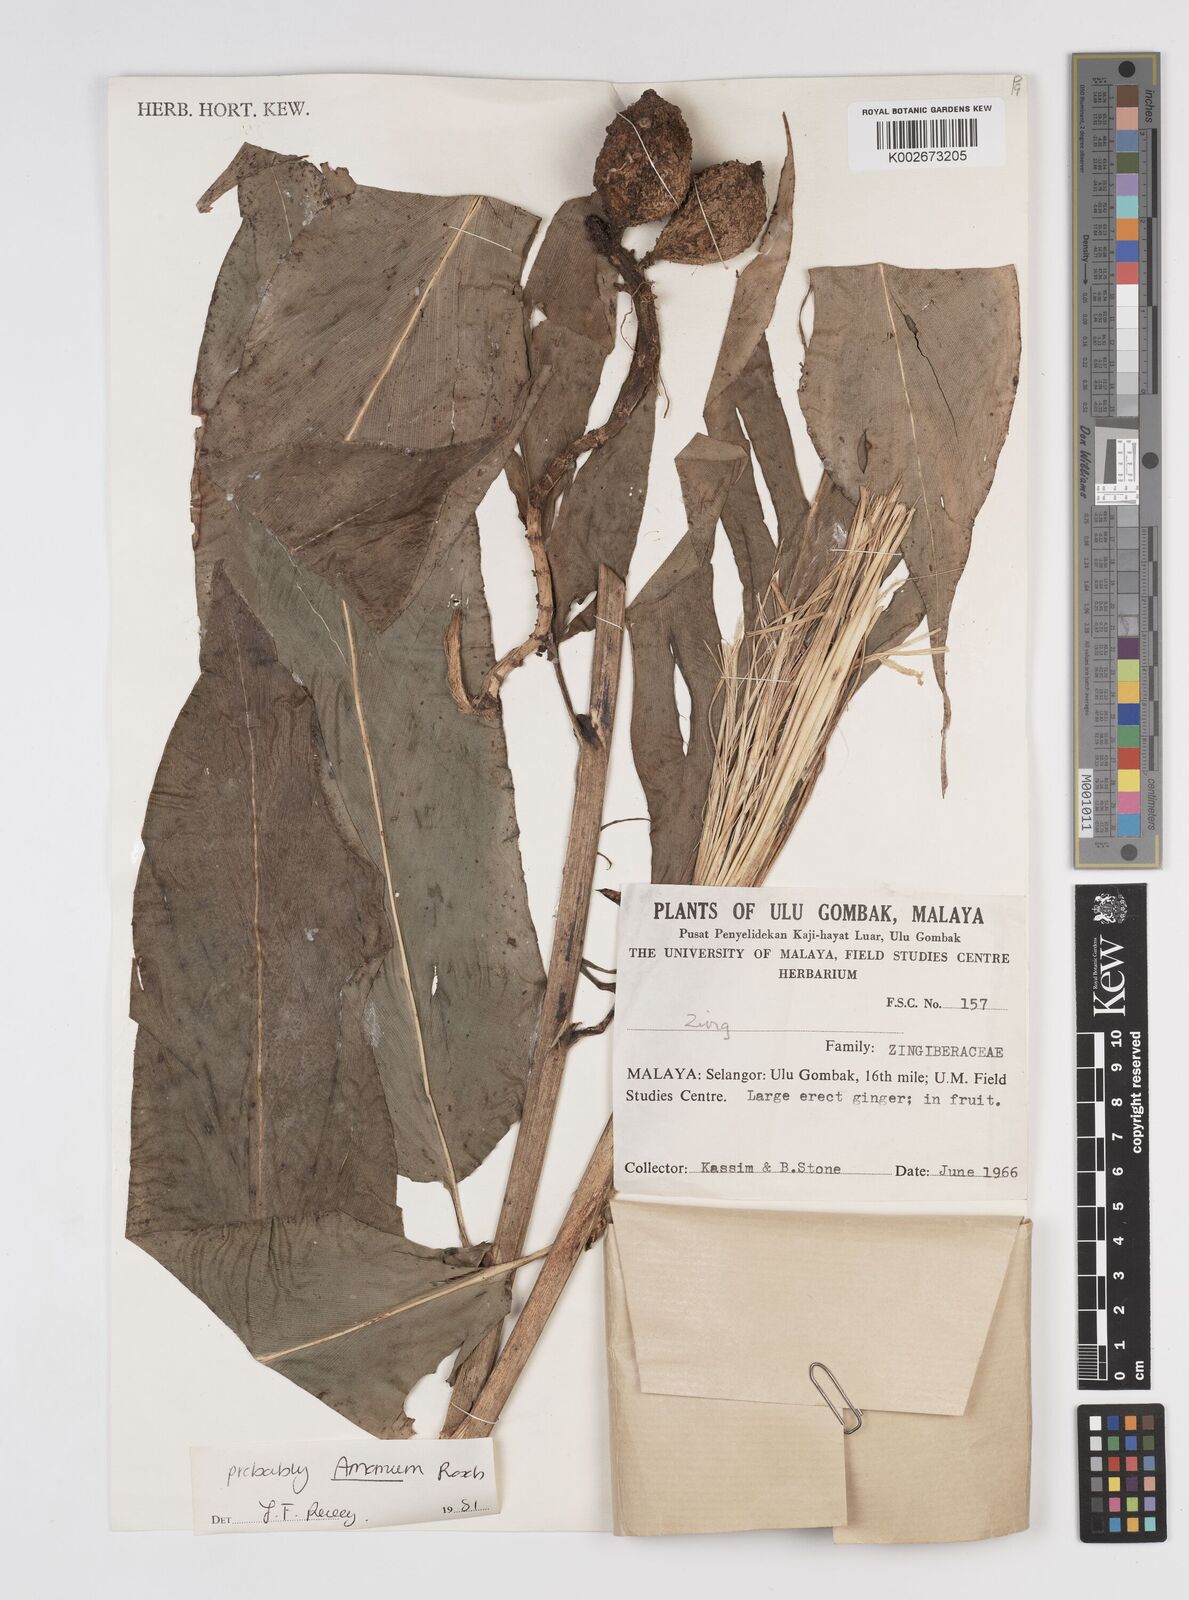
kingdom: Plantae
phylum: Tracheophyta
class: Liliopsida
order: Zingiberales
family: Zingiberaceae
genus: Amomum
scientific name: Amomum
